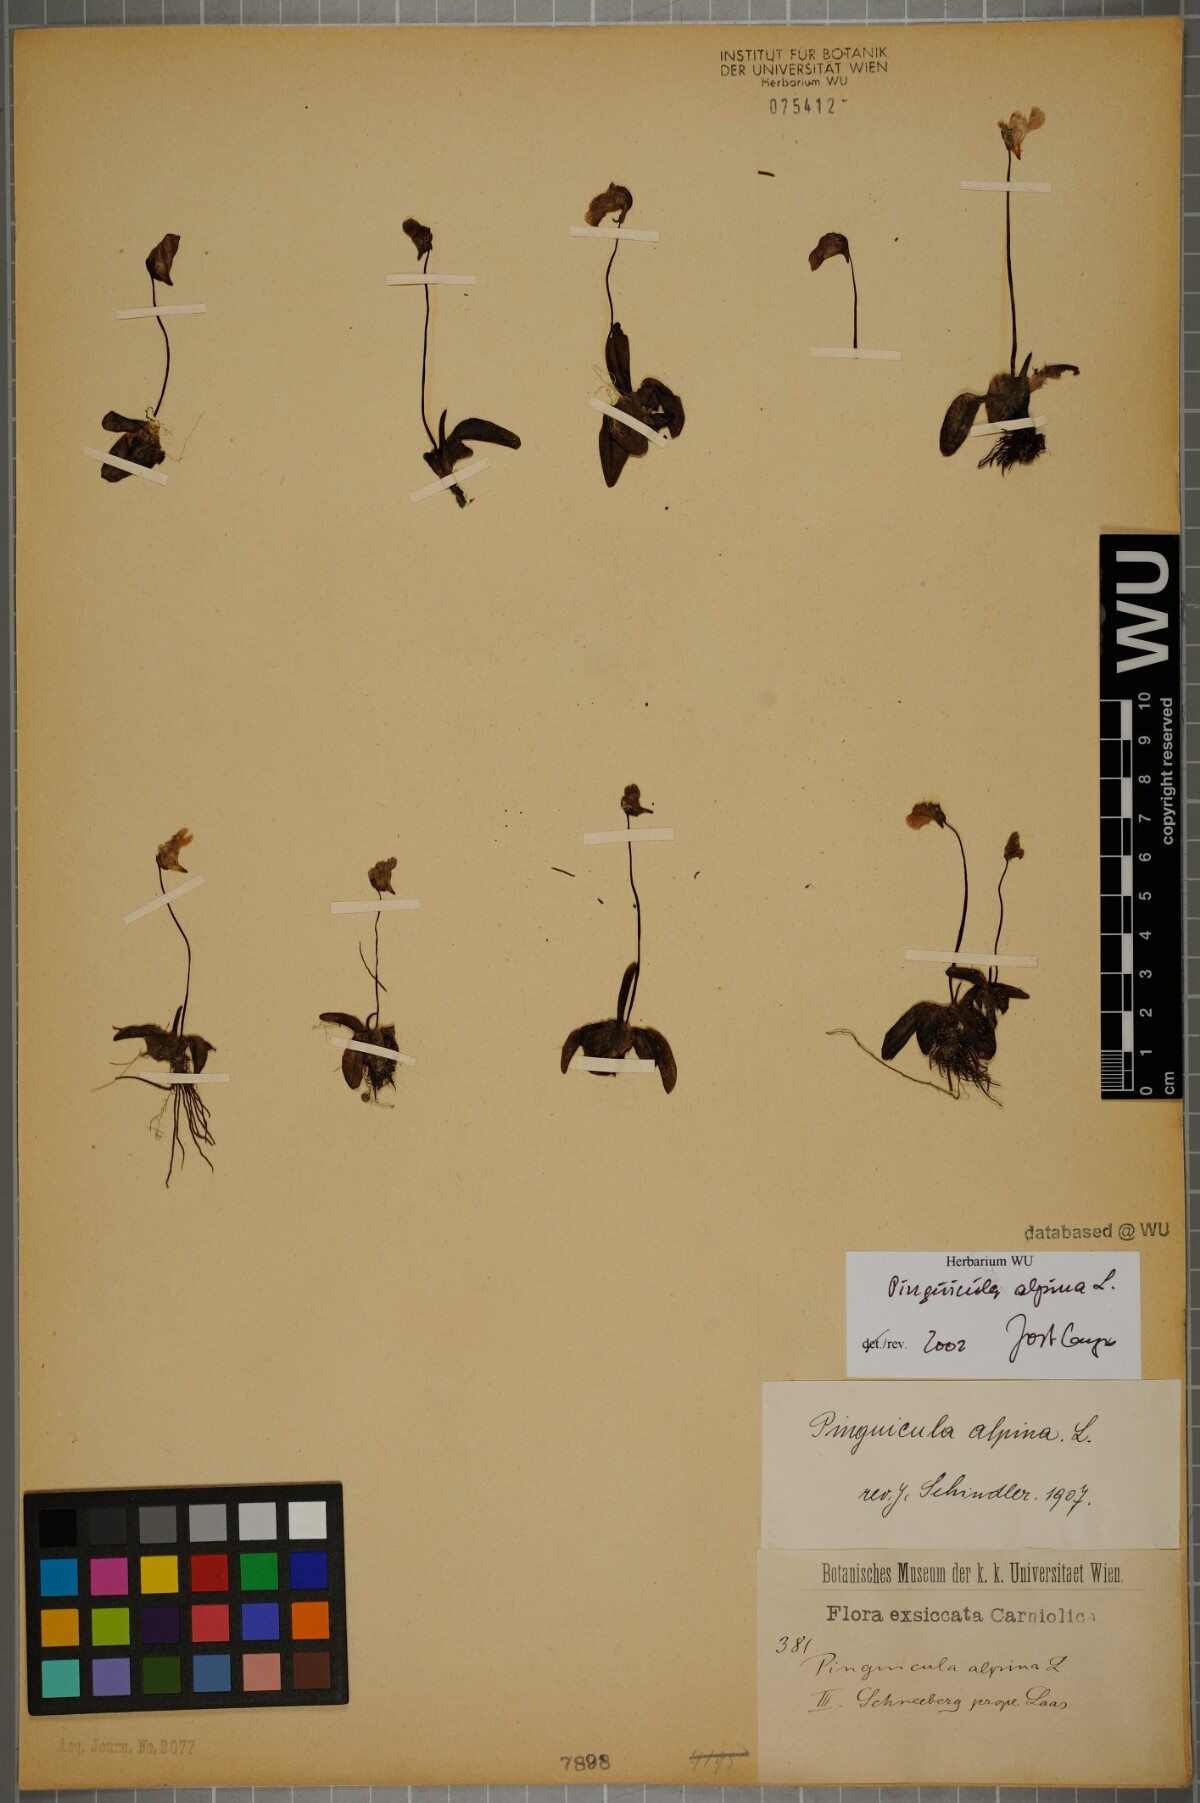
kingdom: Plantae
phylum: Tracheophyta
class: Magnoliopsida
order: Lamiales
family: Lentibulariaceae
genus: Pinguicula
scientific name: Pinguicula alpina
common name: Alpine butterwort
